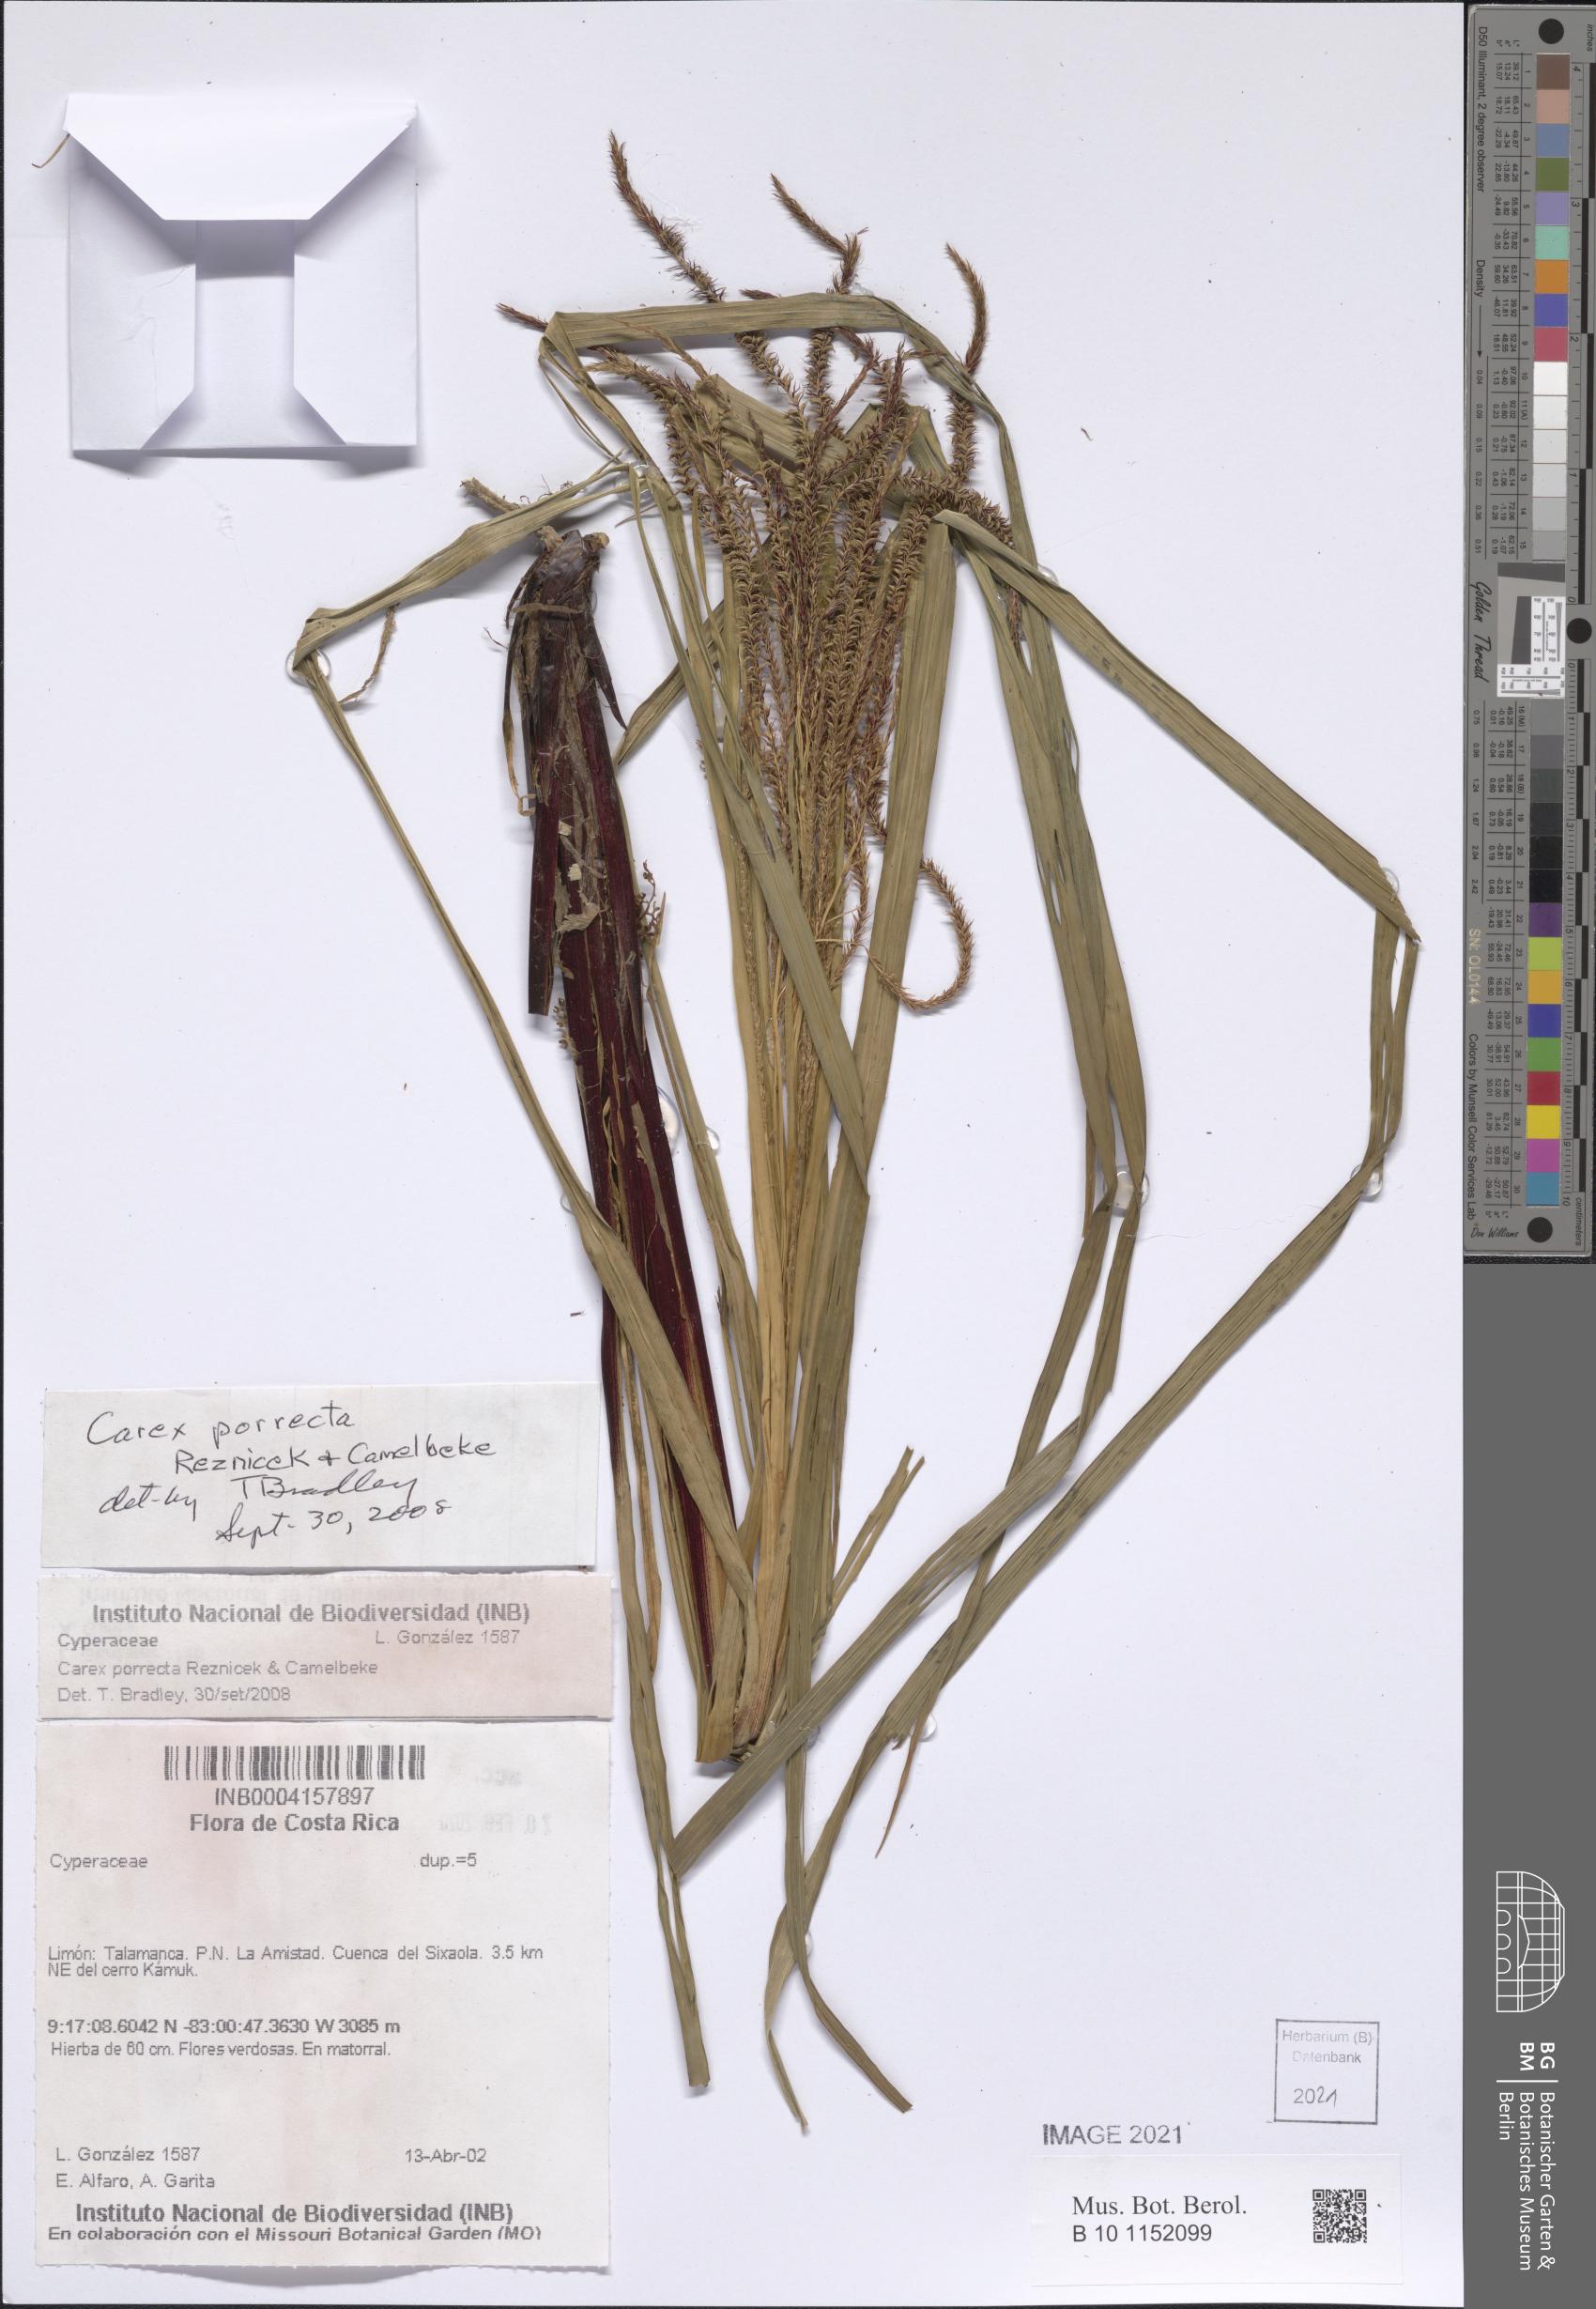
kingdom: Plantae
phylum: Tracheophyta
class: Liliopsida
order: Poales
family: Cyperaceae
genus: Carex
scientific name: Carex porrecta
